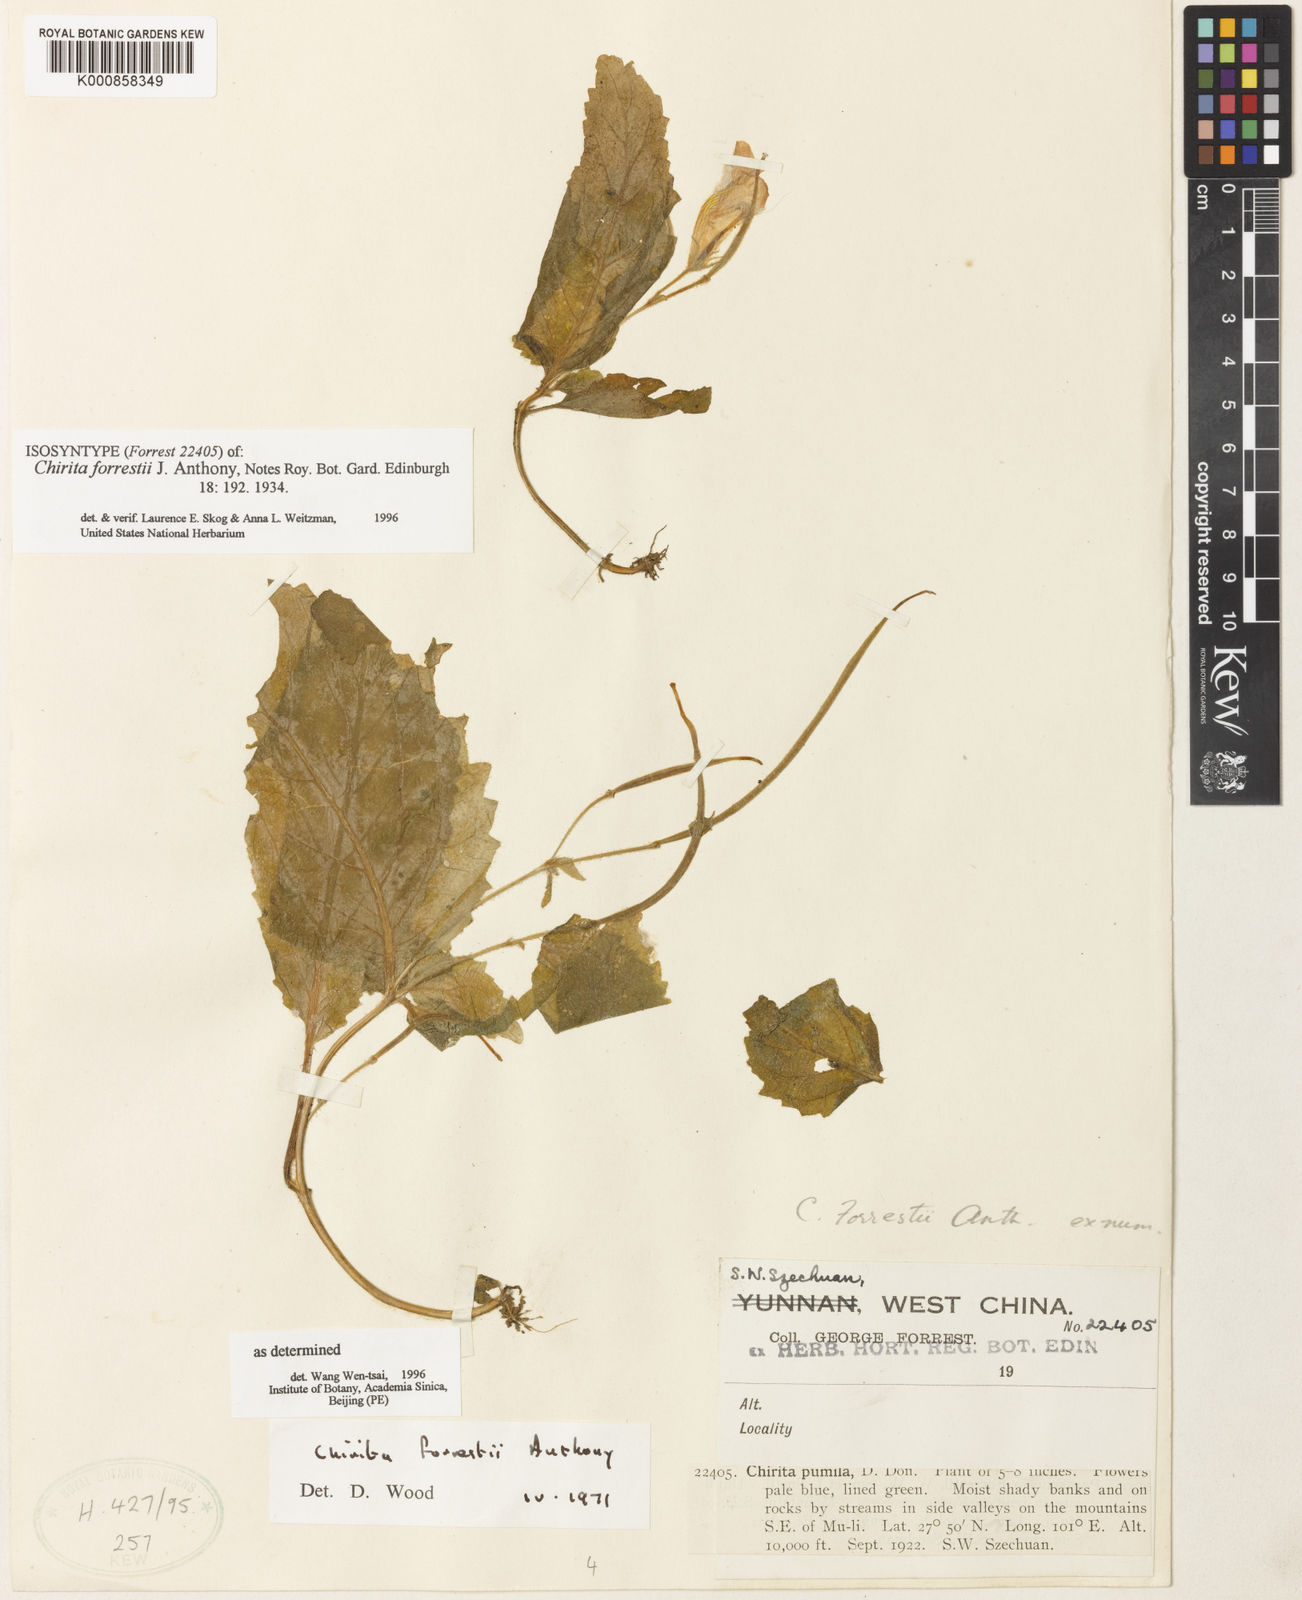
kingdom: Plantae
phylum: Tracheophyta
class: Magnoliopsida
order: Lamiales
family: Gesneriaceae
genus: Henckelia
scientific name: Henckelia forrestii
